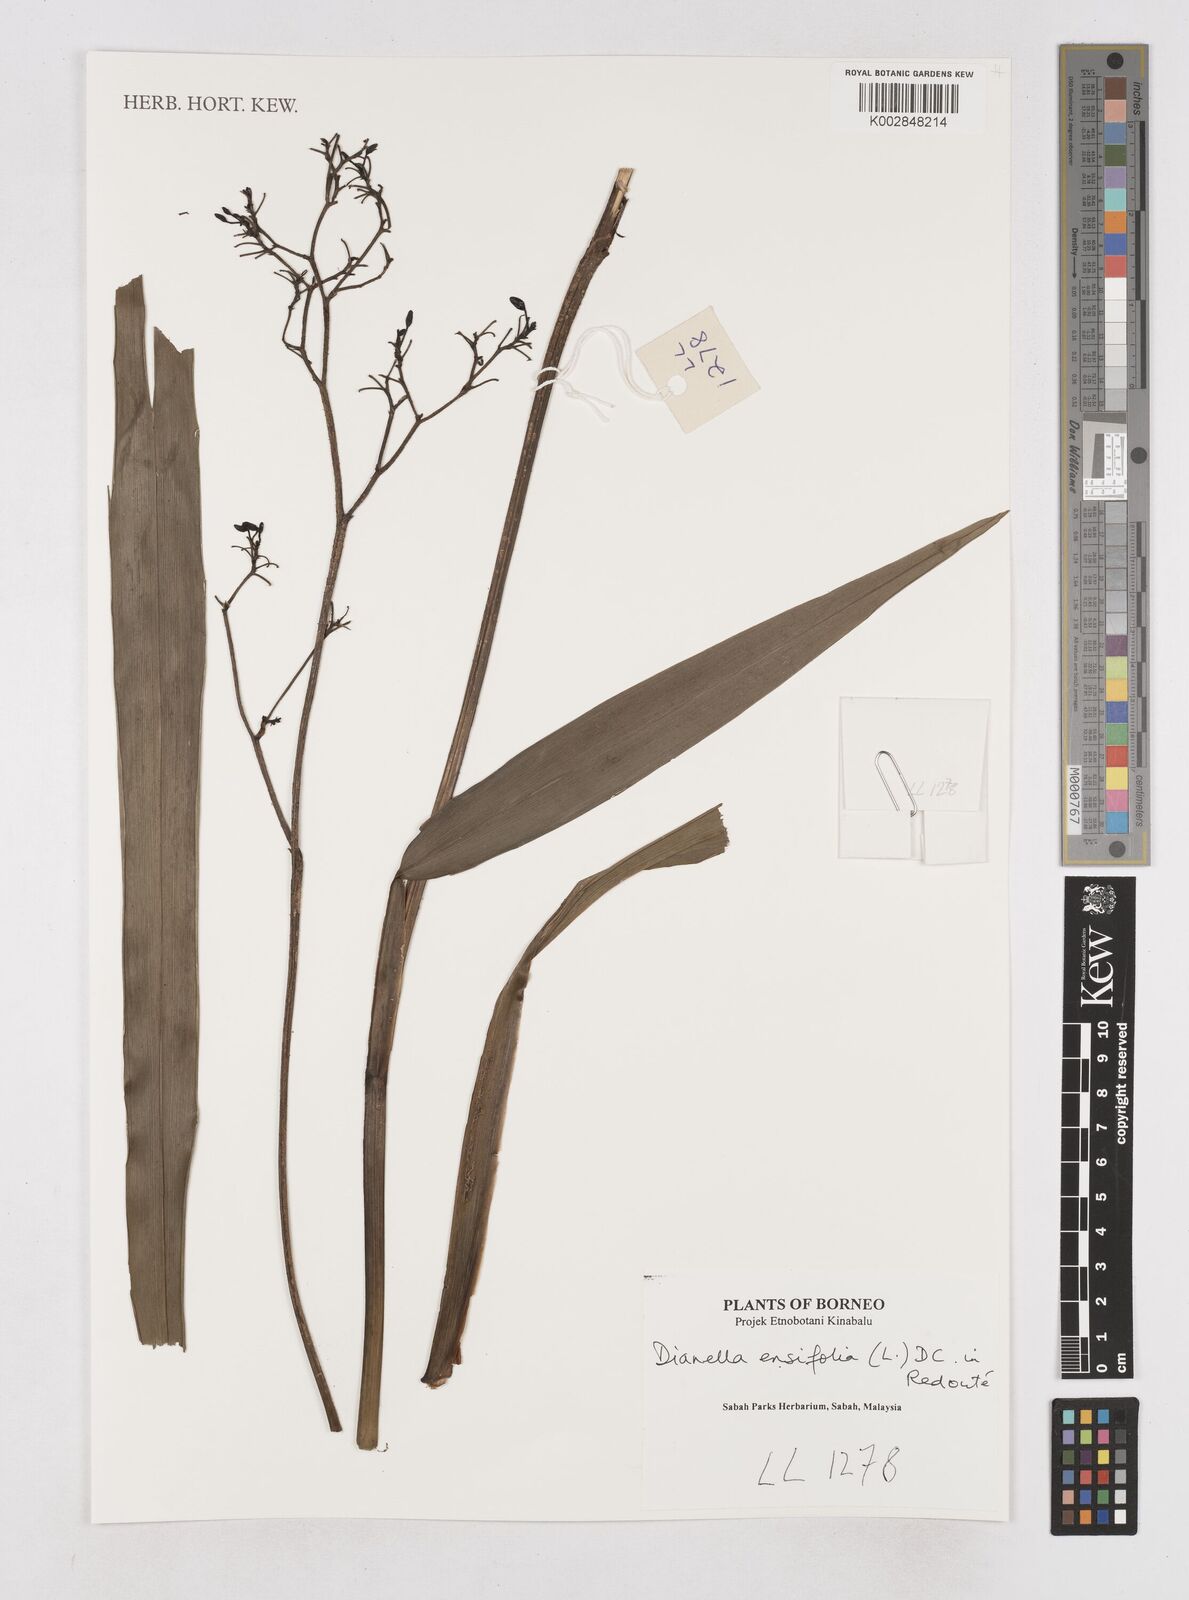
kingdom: Plantae
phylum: Tracheophyta
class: Liliopsida
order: Asparagales
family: Asphodelaceae
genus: Dianella
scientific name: Dianella ensifolia
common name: New zealand lilyplant
